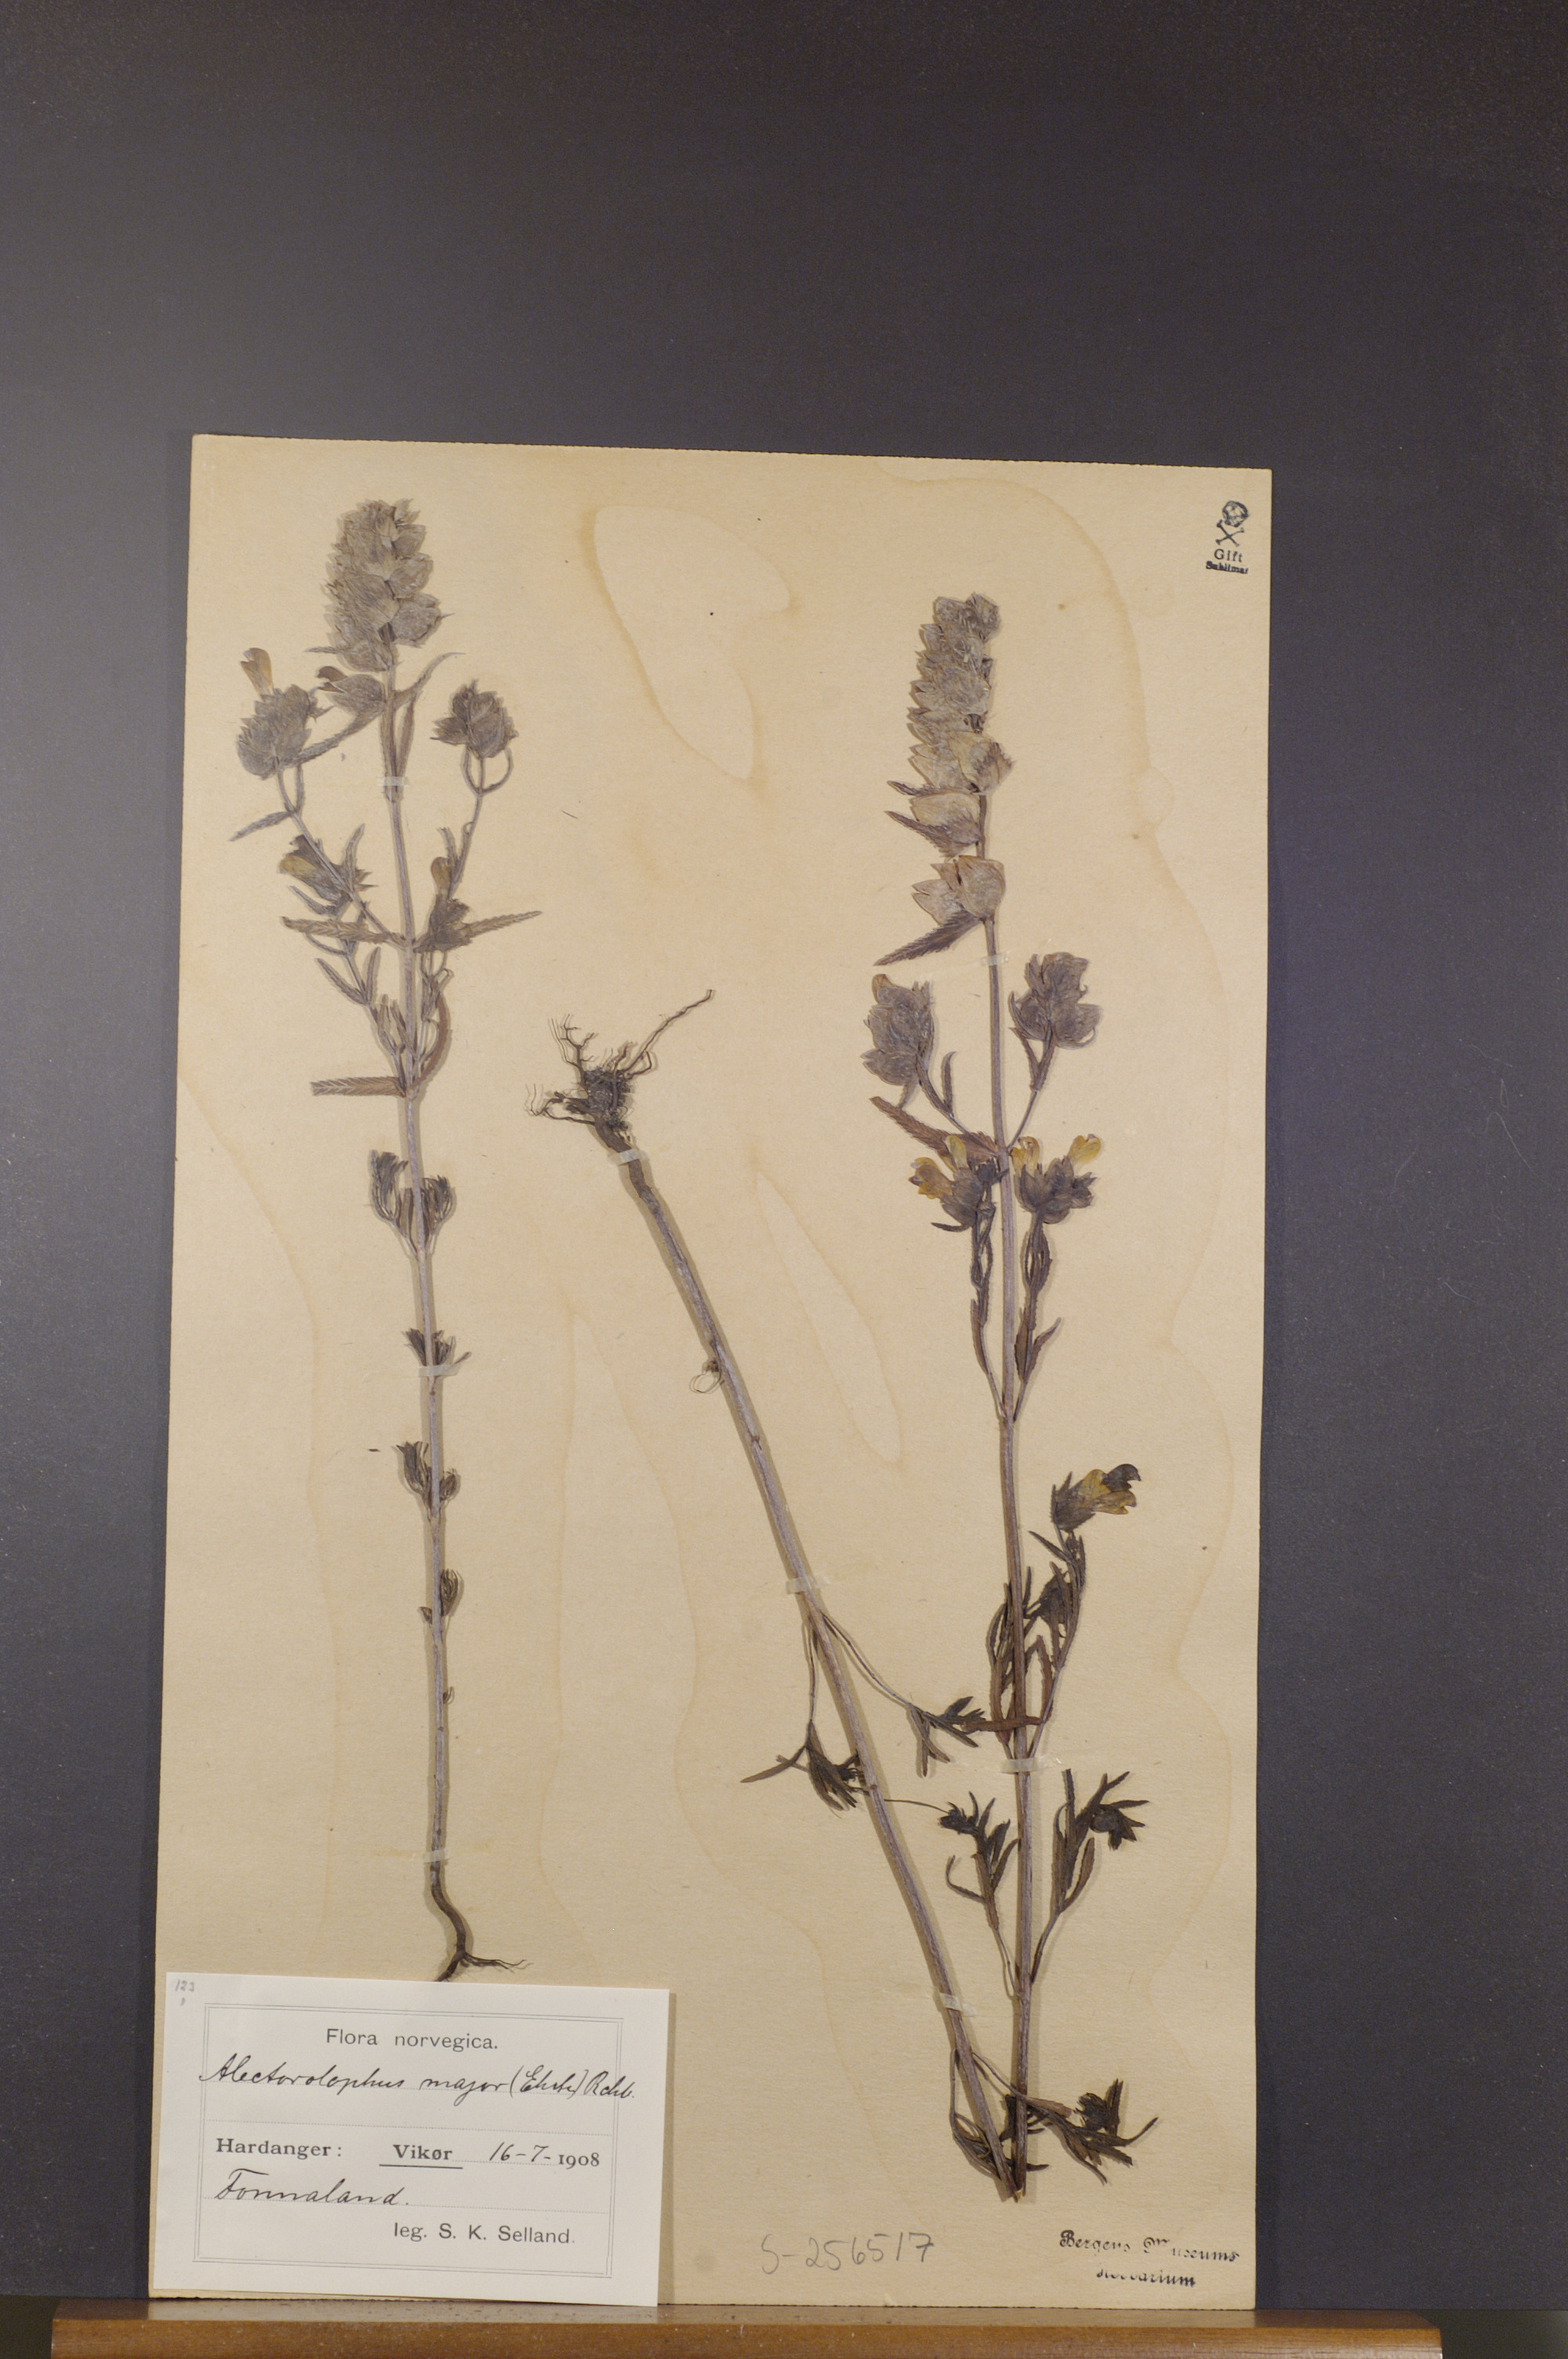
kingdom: Plantae
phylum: Tracheophyta
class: Magnoliopsida
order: Lamiales
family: Orobanchaceae
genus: Rhinanthus
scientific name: Rhinanthus serotinus
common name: Late-flowering yellow rattle
